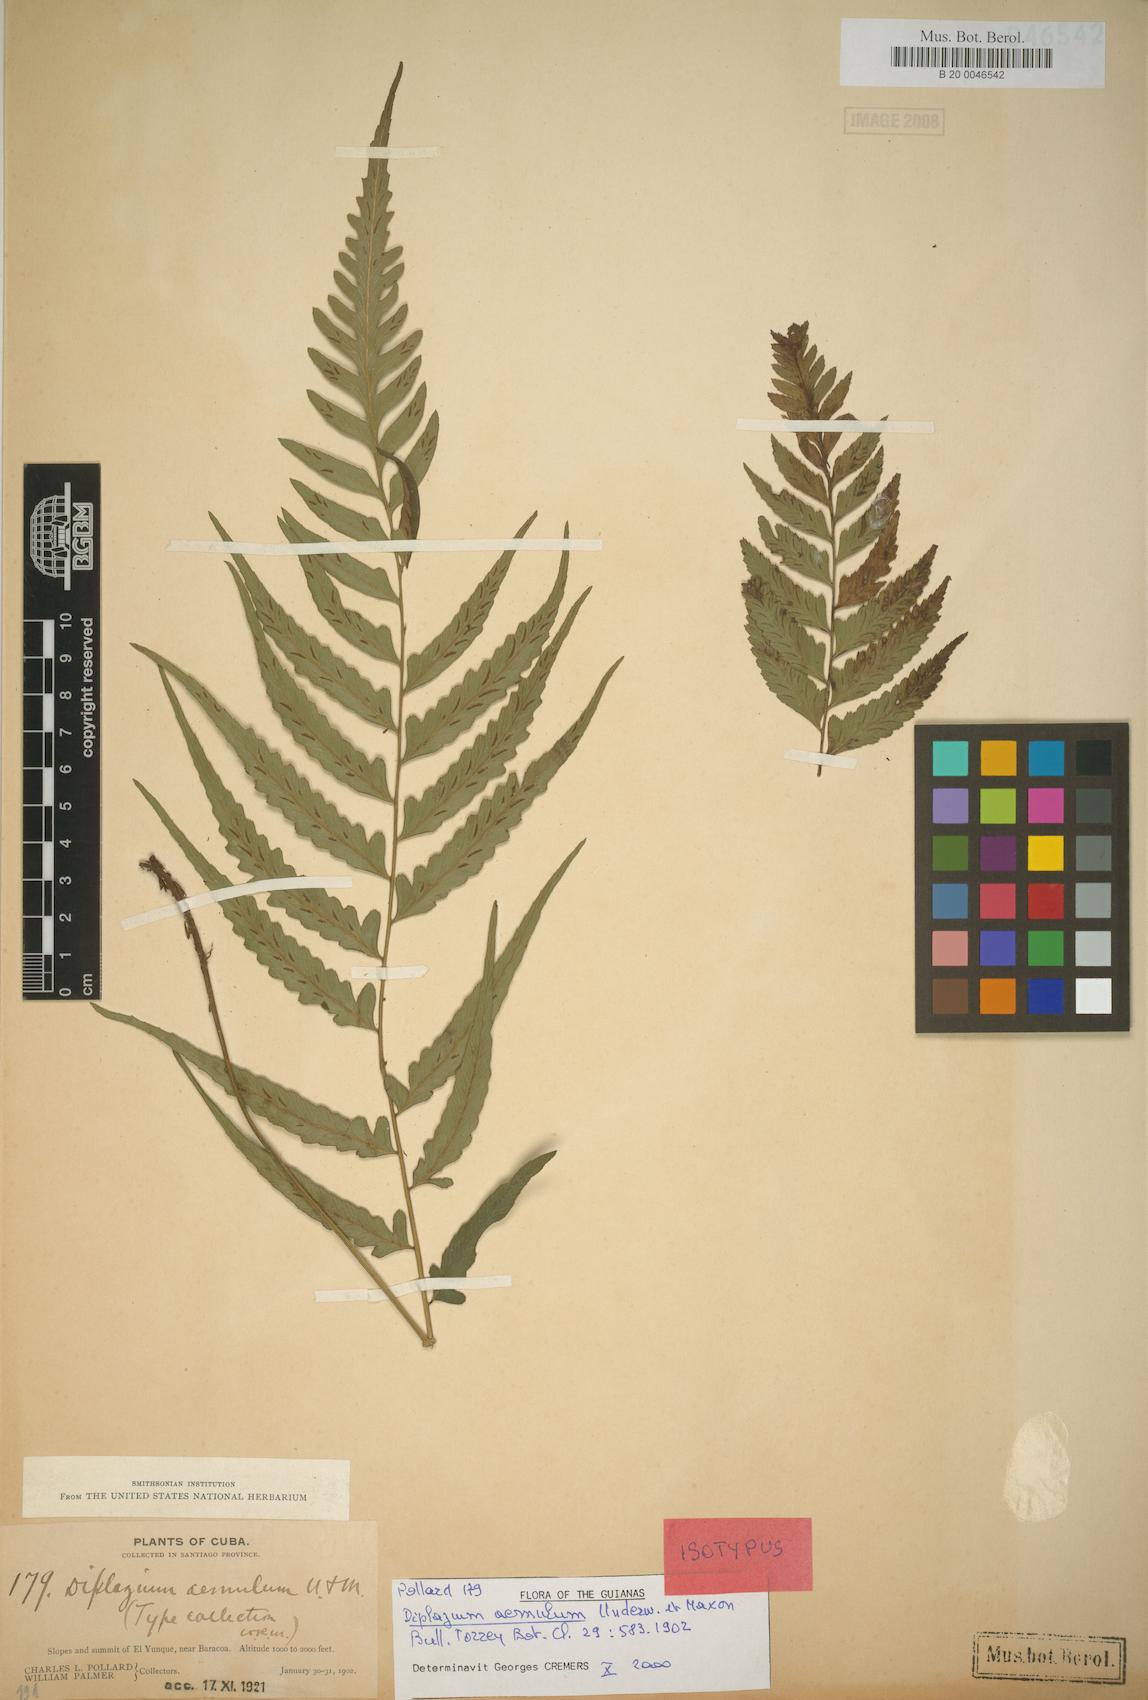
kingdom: Plantae
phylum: Tracheophyta
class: Polypodiopsida
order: Polypodiales
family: Athyriaceae
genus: Diplazium
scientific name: Diplazium aemulum
